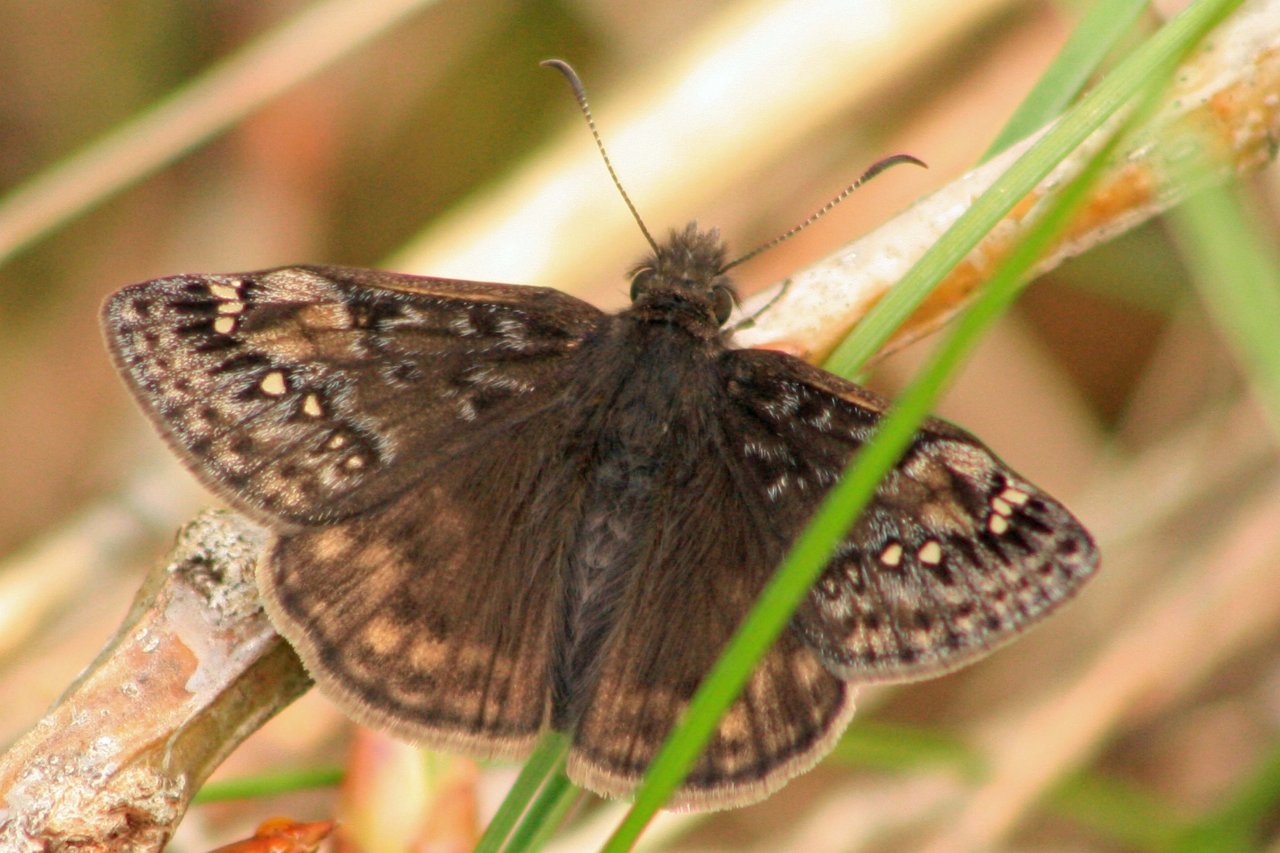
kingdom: Animalia
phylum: Arthropoda
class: Insecta
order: Lepidoptera
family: Hesperiidae
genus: Gesta
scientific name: Gesta
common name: Juvenal's Duskywing
